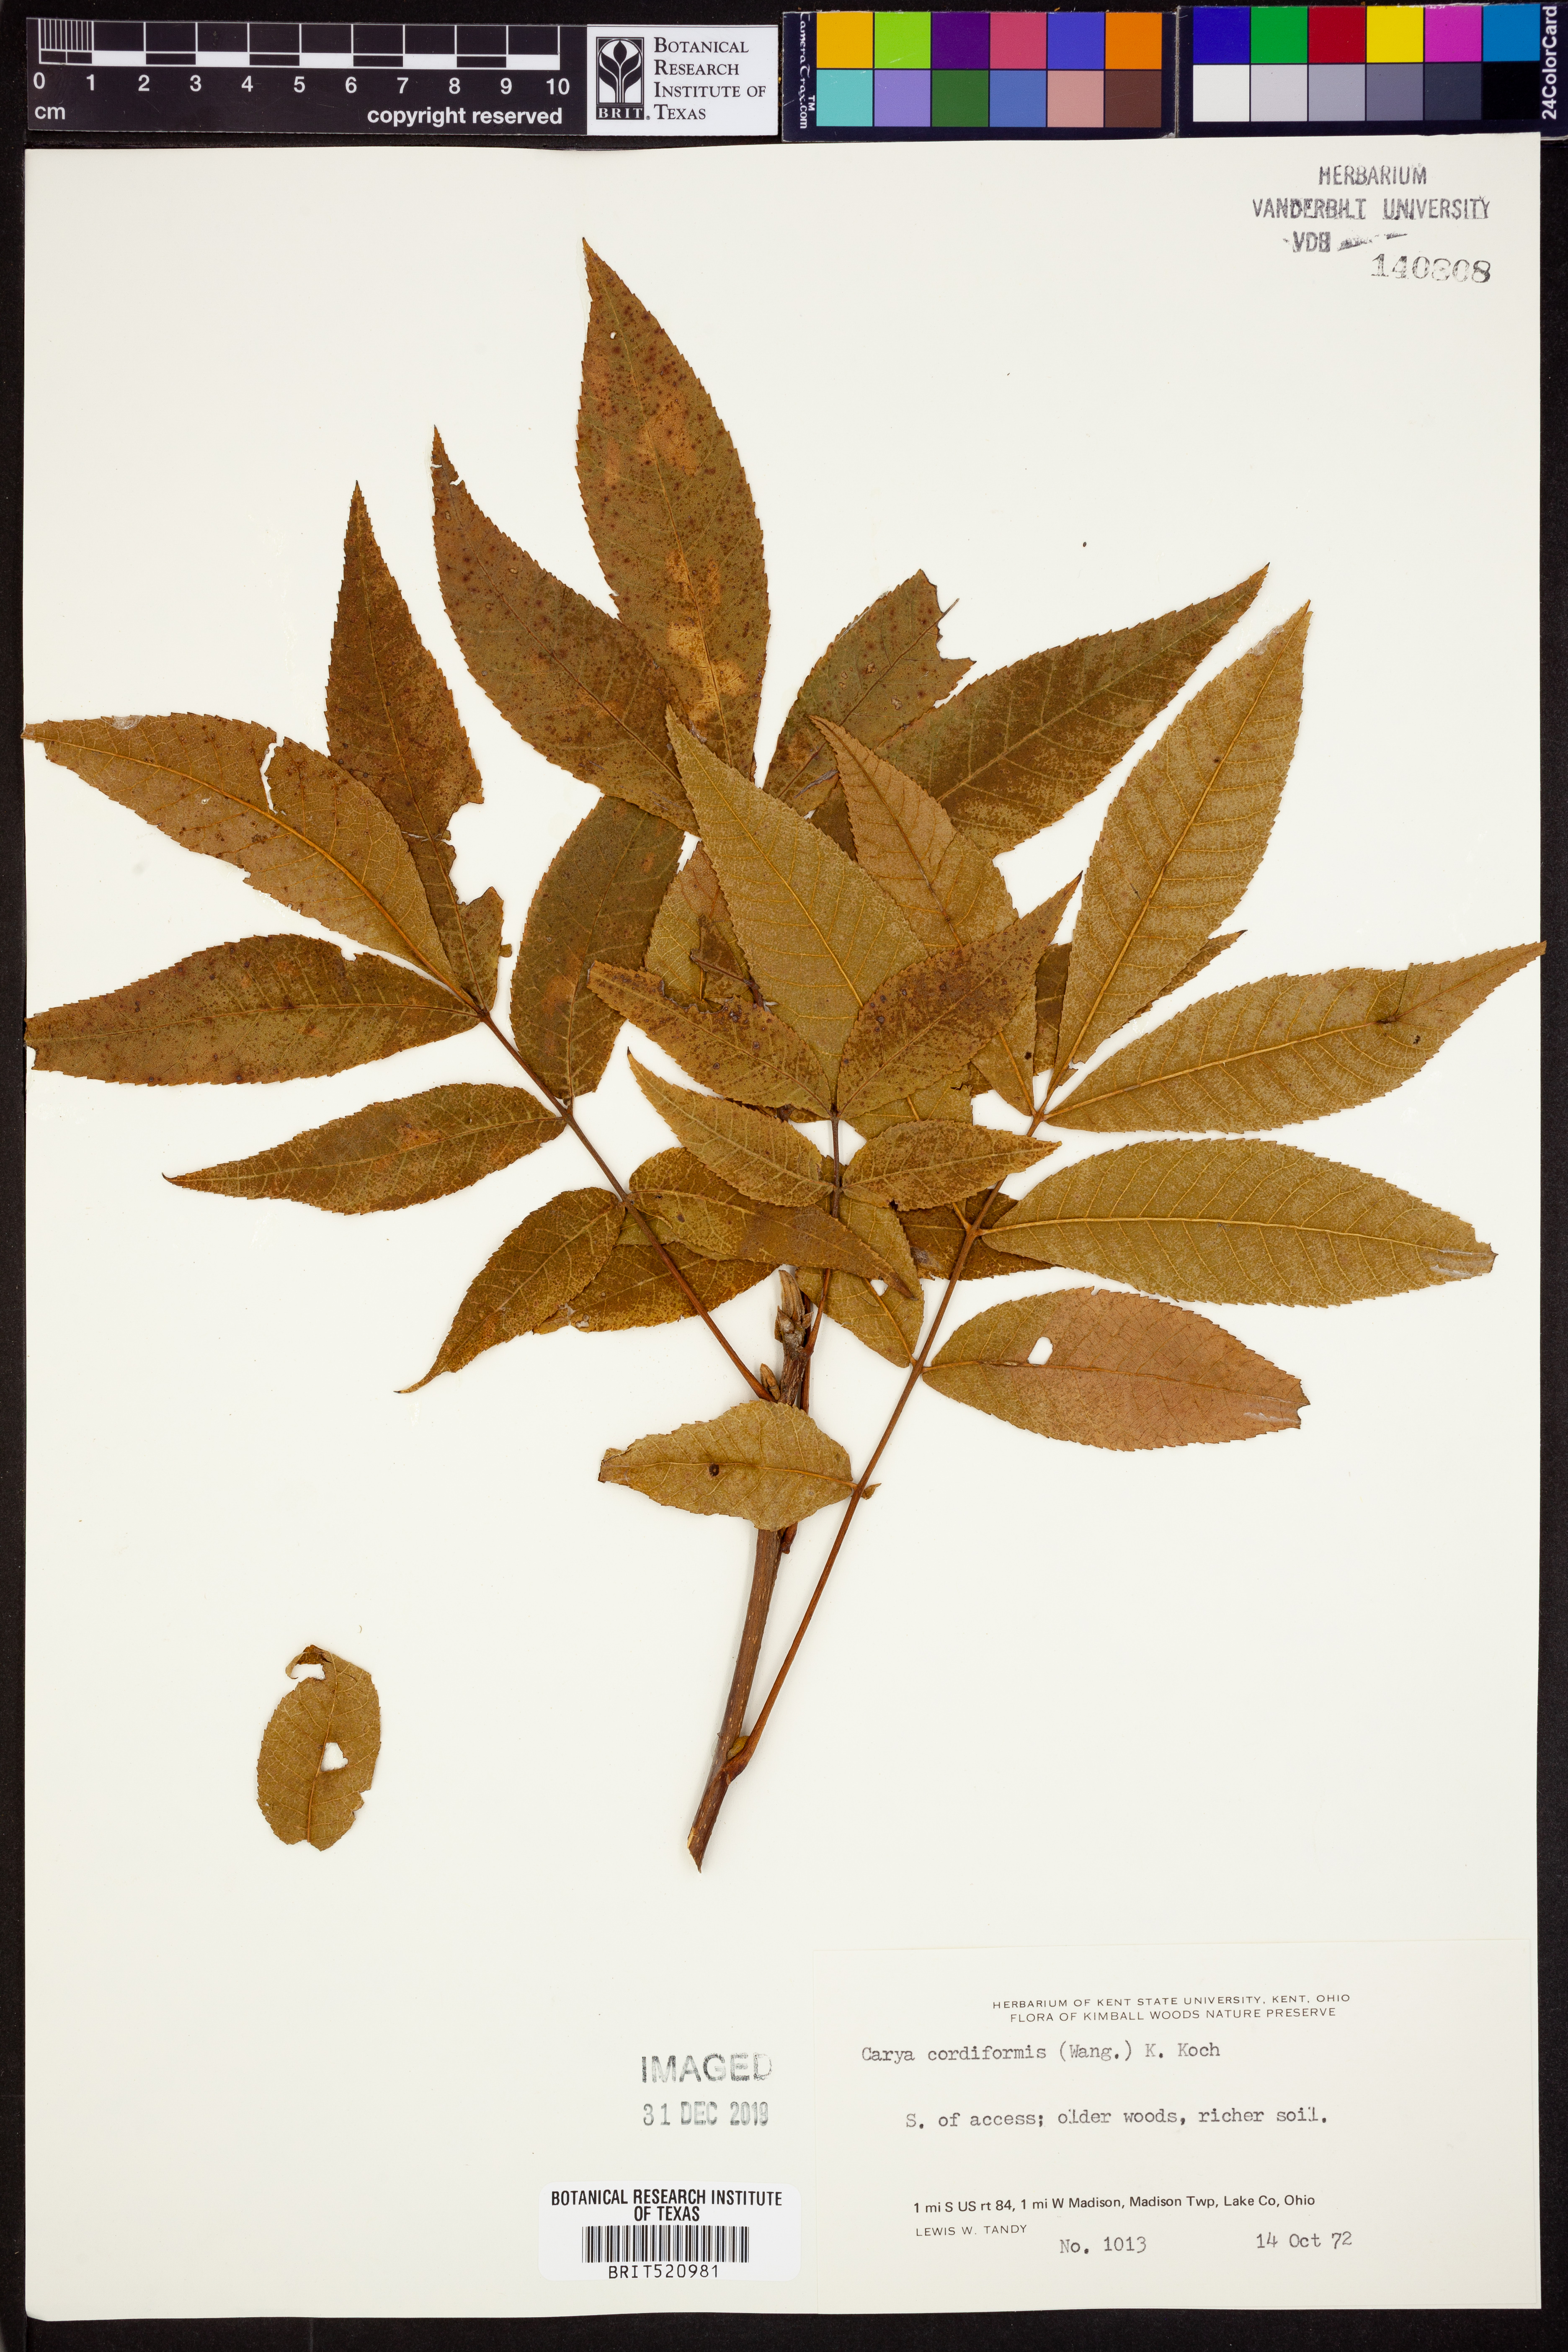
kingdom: Plantae
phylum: Tracheophyta
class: Magnoliopsida
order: Fagales
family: Juglandaceae
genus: Carya
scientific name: Carya cordiformis
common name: Bitternut hickory
